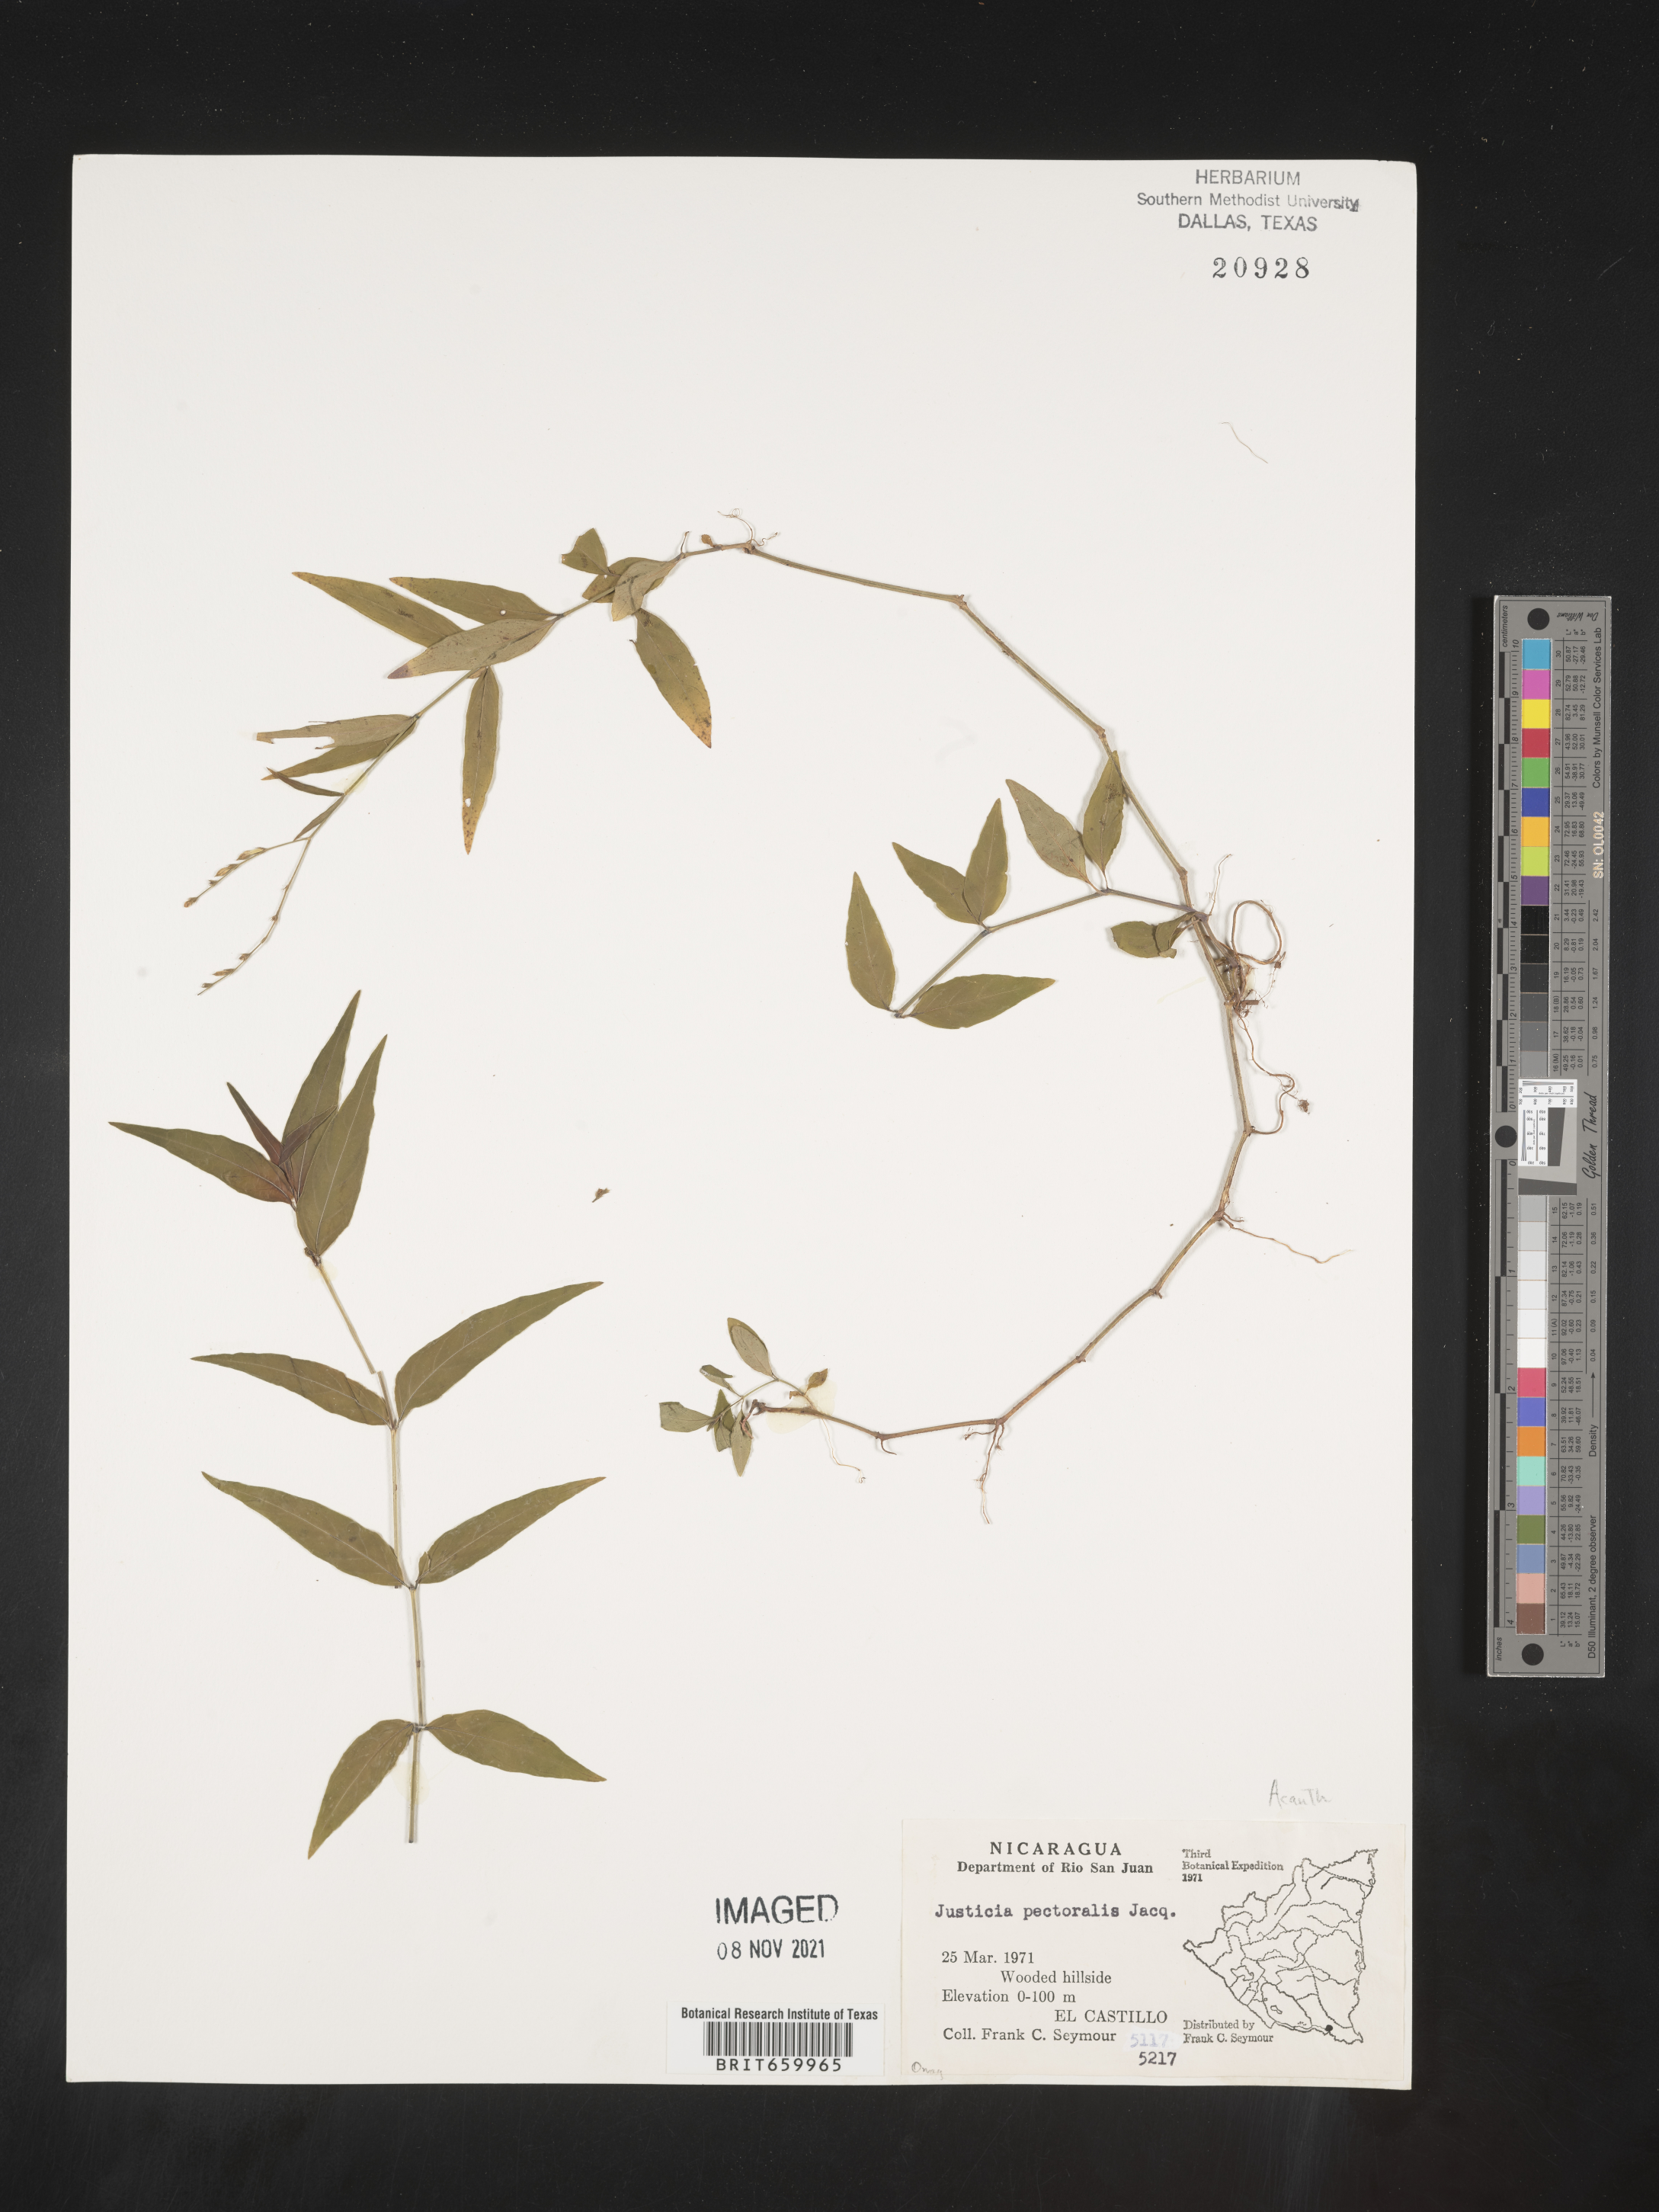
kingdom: Plantae
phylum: Tracheophyta
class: Magnoliopsida
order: Lamiales
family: Acanthaceae
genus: Justicia
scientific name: Justicia
